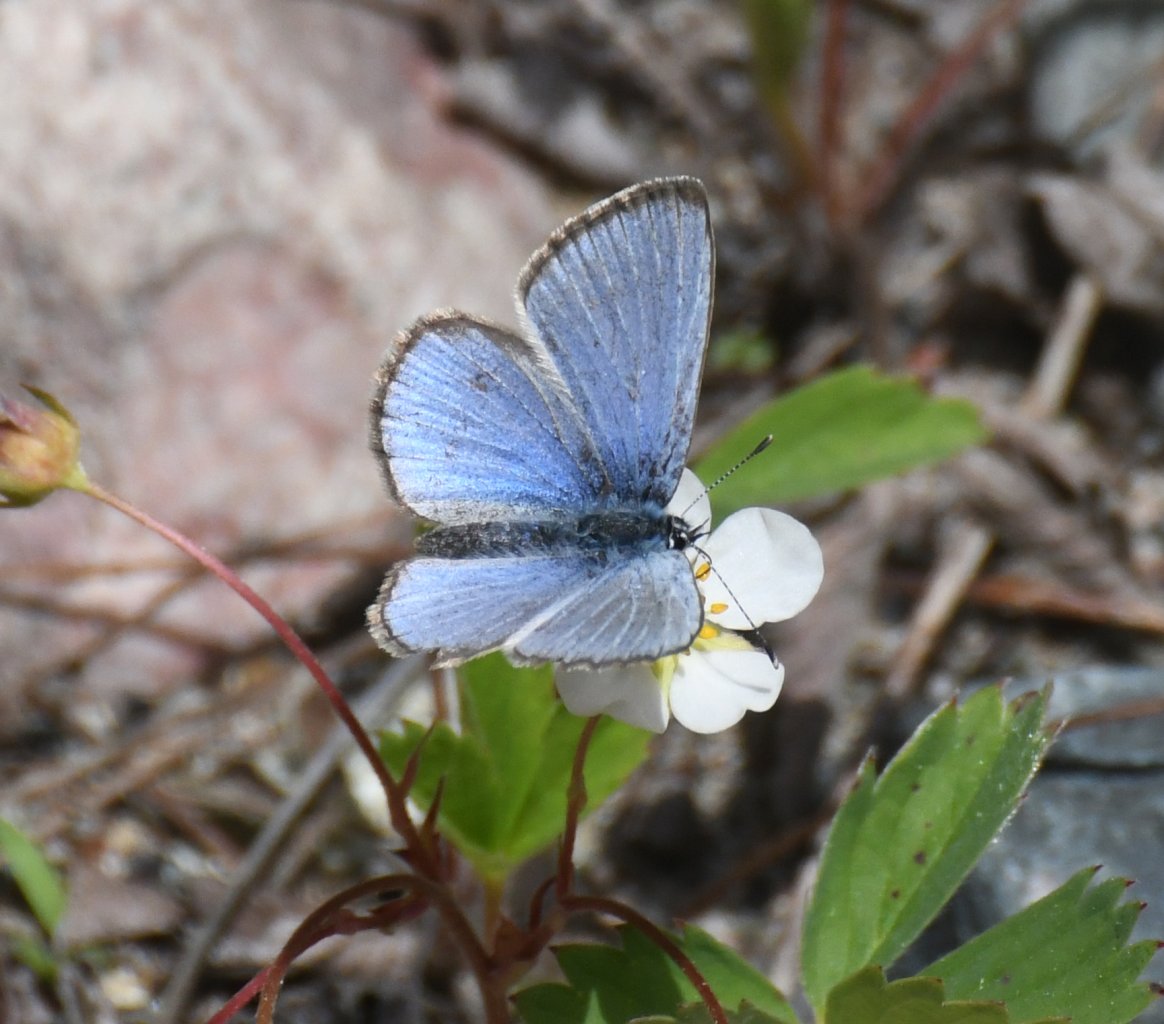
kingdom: Animalia
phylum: Arthropoda
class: Insecta
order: Lepidoptera
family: Lycaenidae
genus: Glaucopsyche
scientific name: Glaucopsyche lygdamus
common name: Silvery Blue
